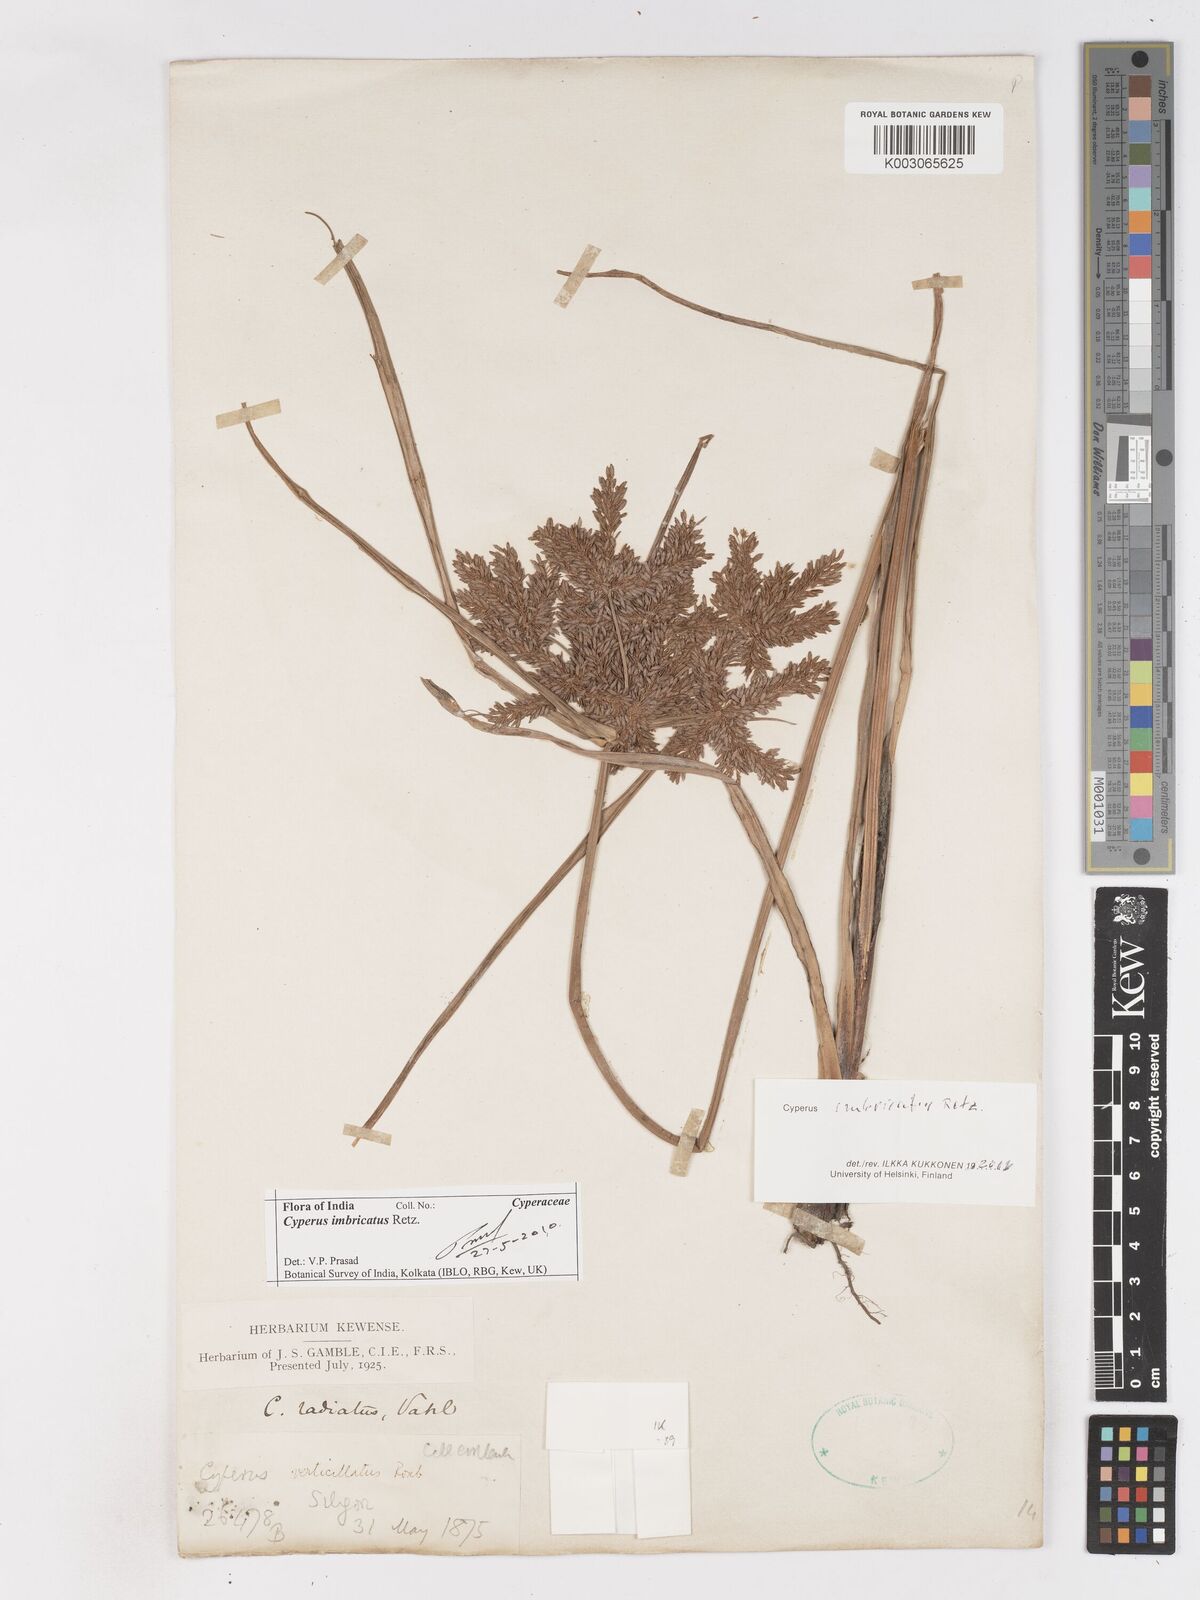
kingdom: Plantae
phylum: Tracheophyta
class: Liliopsida
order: Poales
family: Cyperaceae
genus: Cyperus
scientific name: Cyperus imbricatus
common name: Shingle flatsedge
